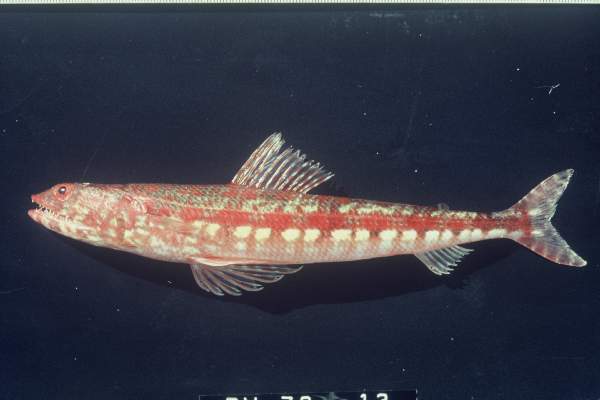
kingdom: Animalia
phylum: Chordata
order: Aulopiformes
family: Synodontidae
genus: Synodus
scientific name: Synodus variegatus
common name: Variegated lizardfish
